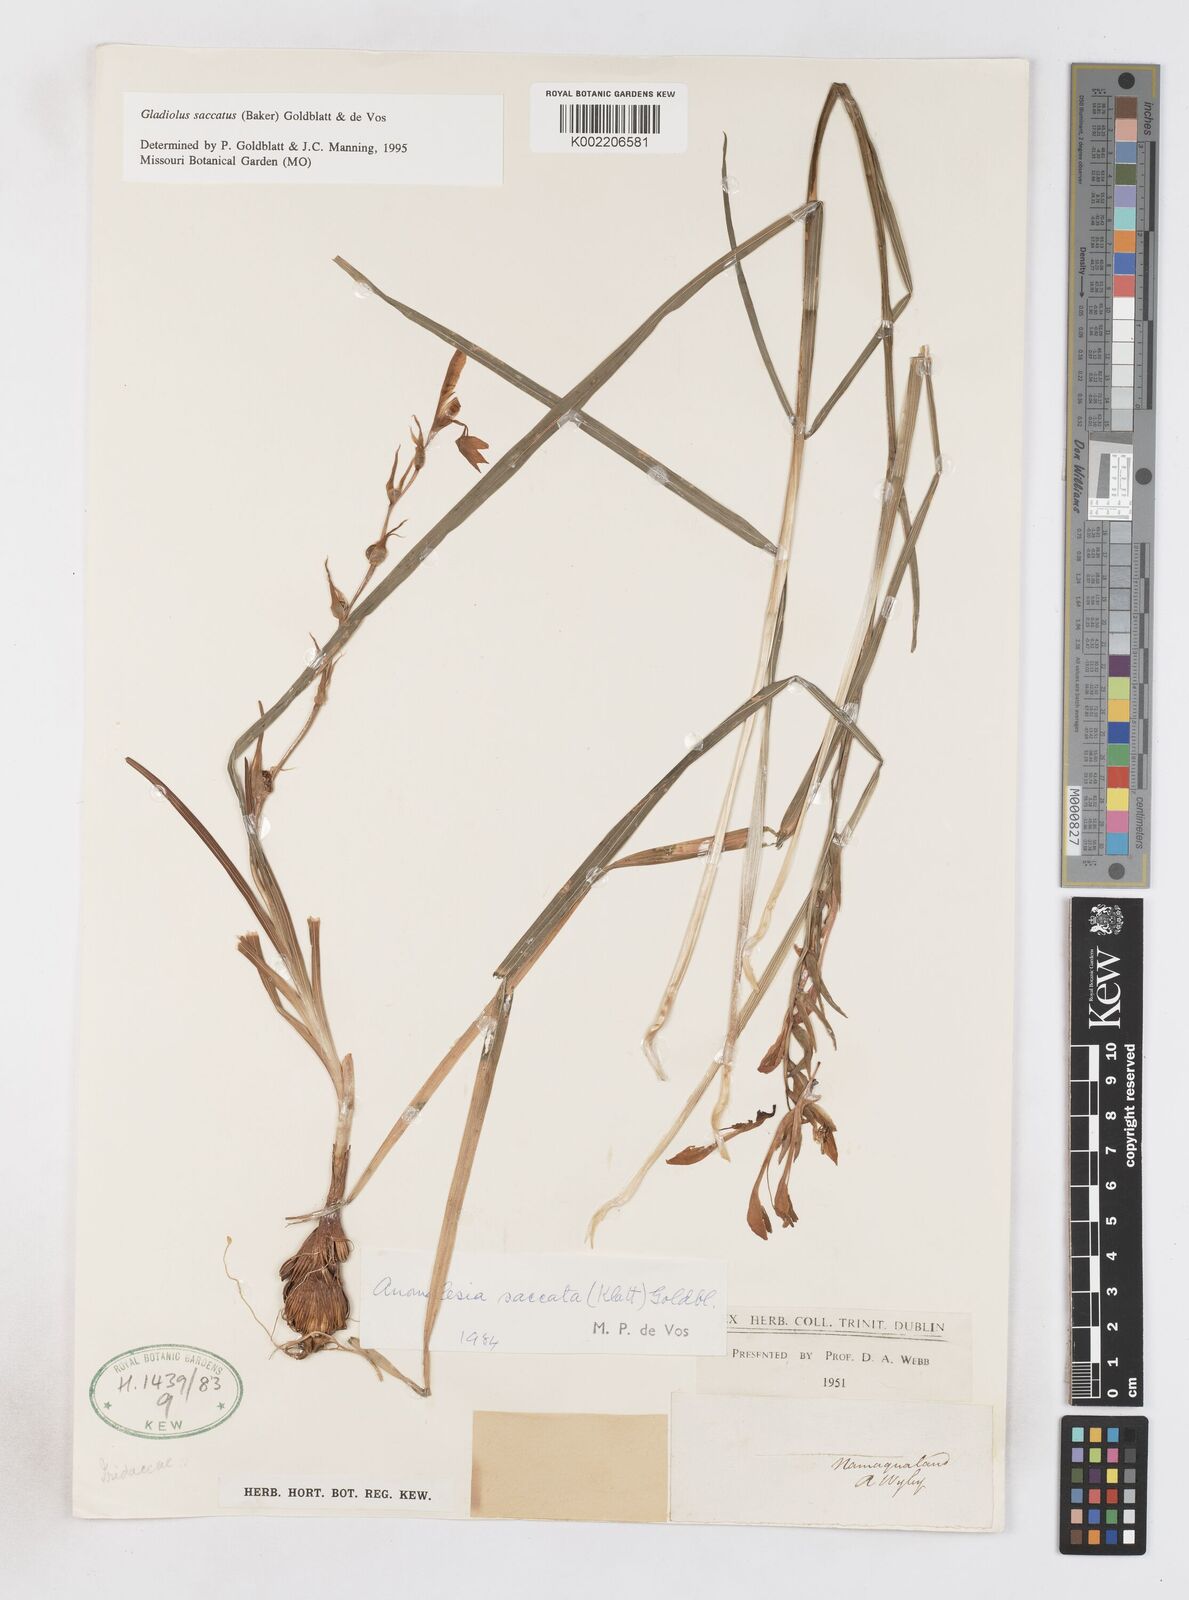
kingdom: Plantae
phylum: Tracheophyta
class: Liliopsida
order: Asparagales
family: Iridaceae
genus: Gladiolus
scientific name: Gladiolus saccatus
